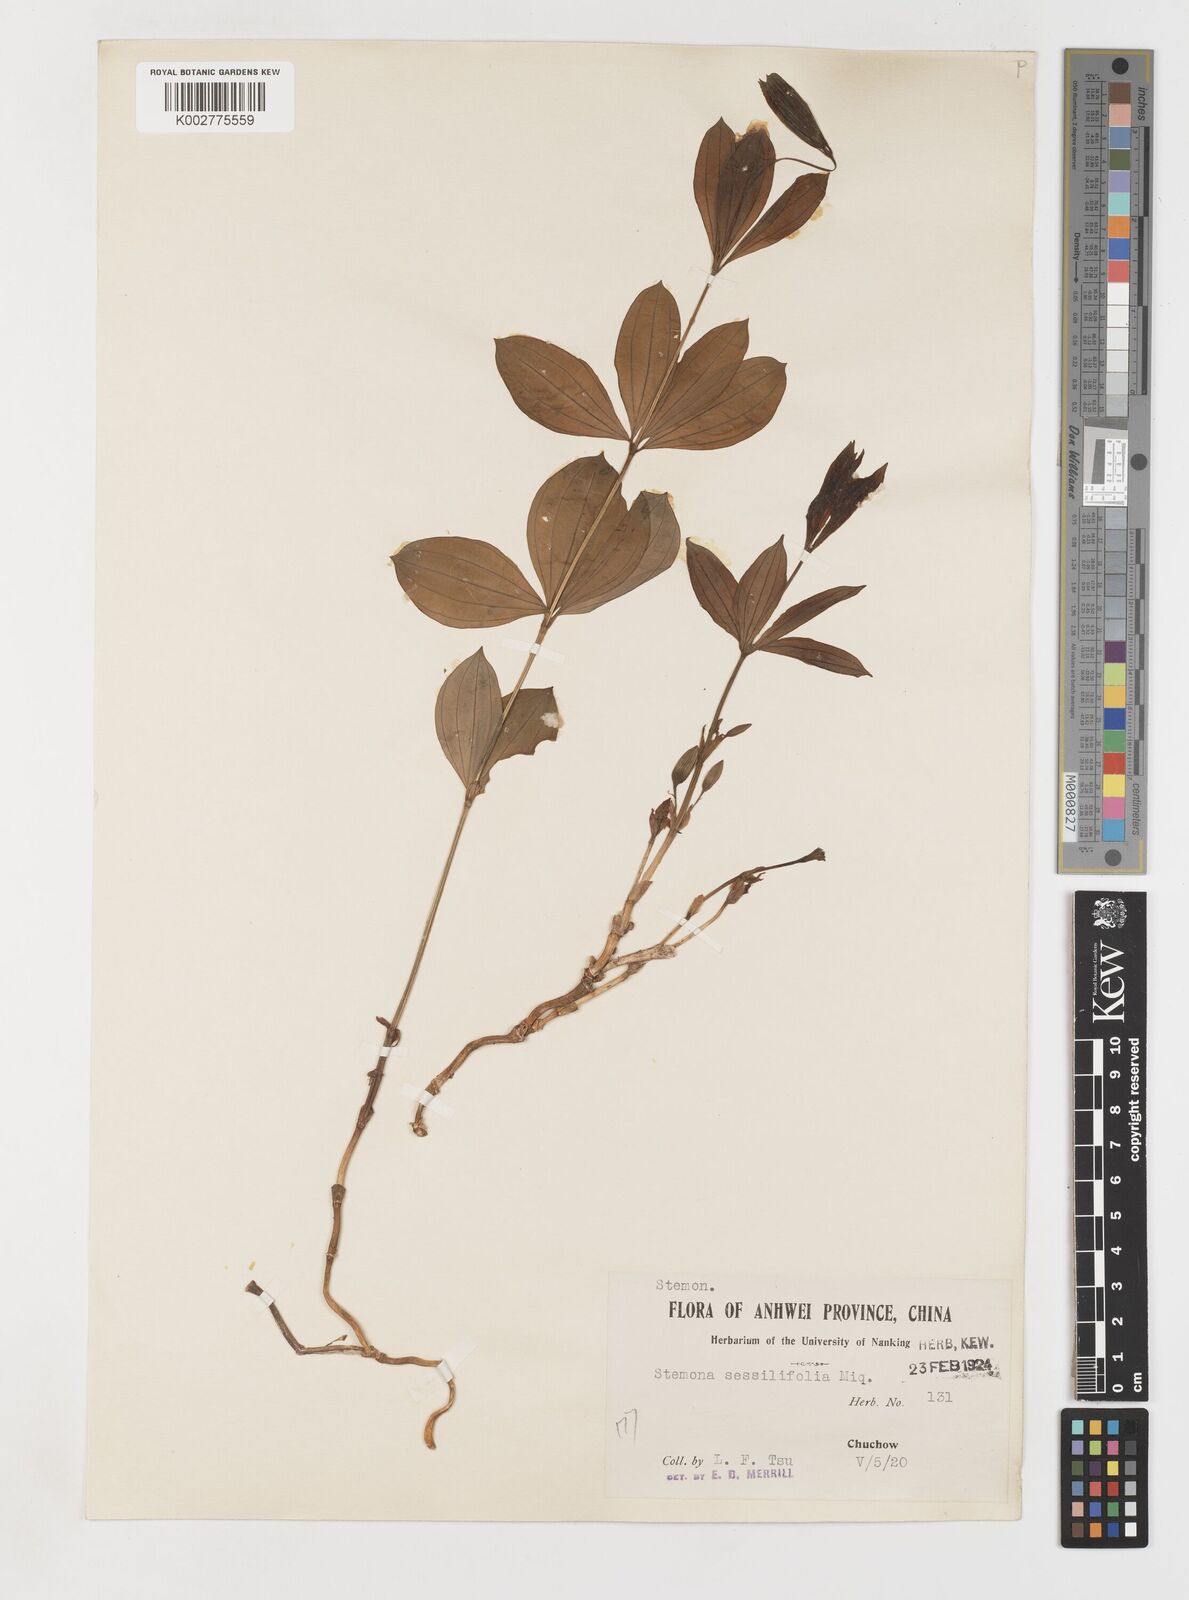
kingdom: Plantae
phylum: Tracheophyta
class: Liliopsida
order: Pandanales
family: Stemonaceae
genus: Stemona
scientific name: Stemona sessilifolia
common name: Stemona
